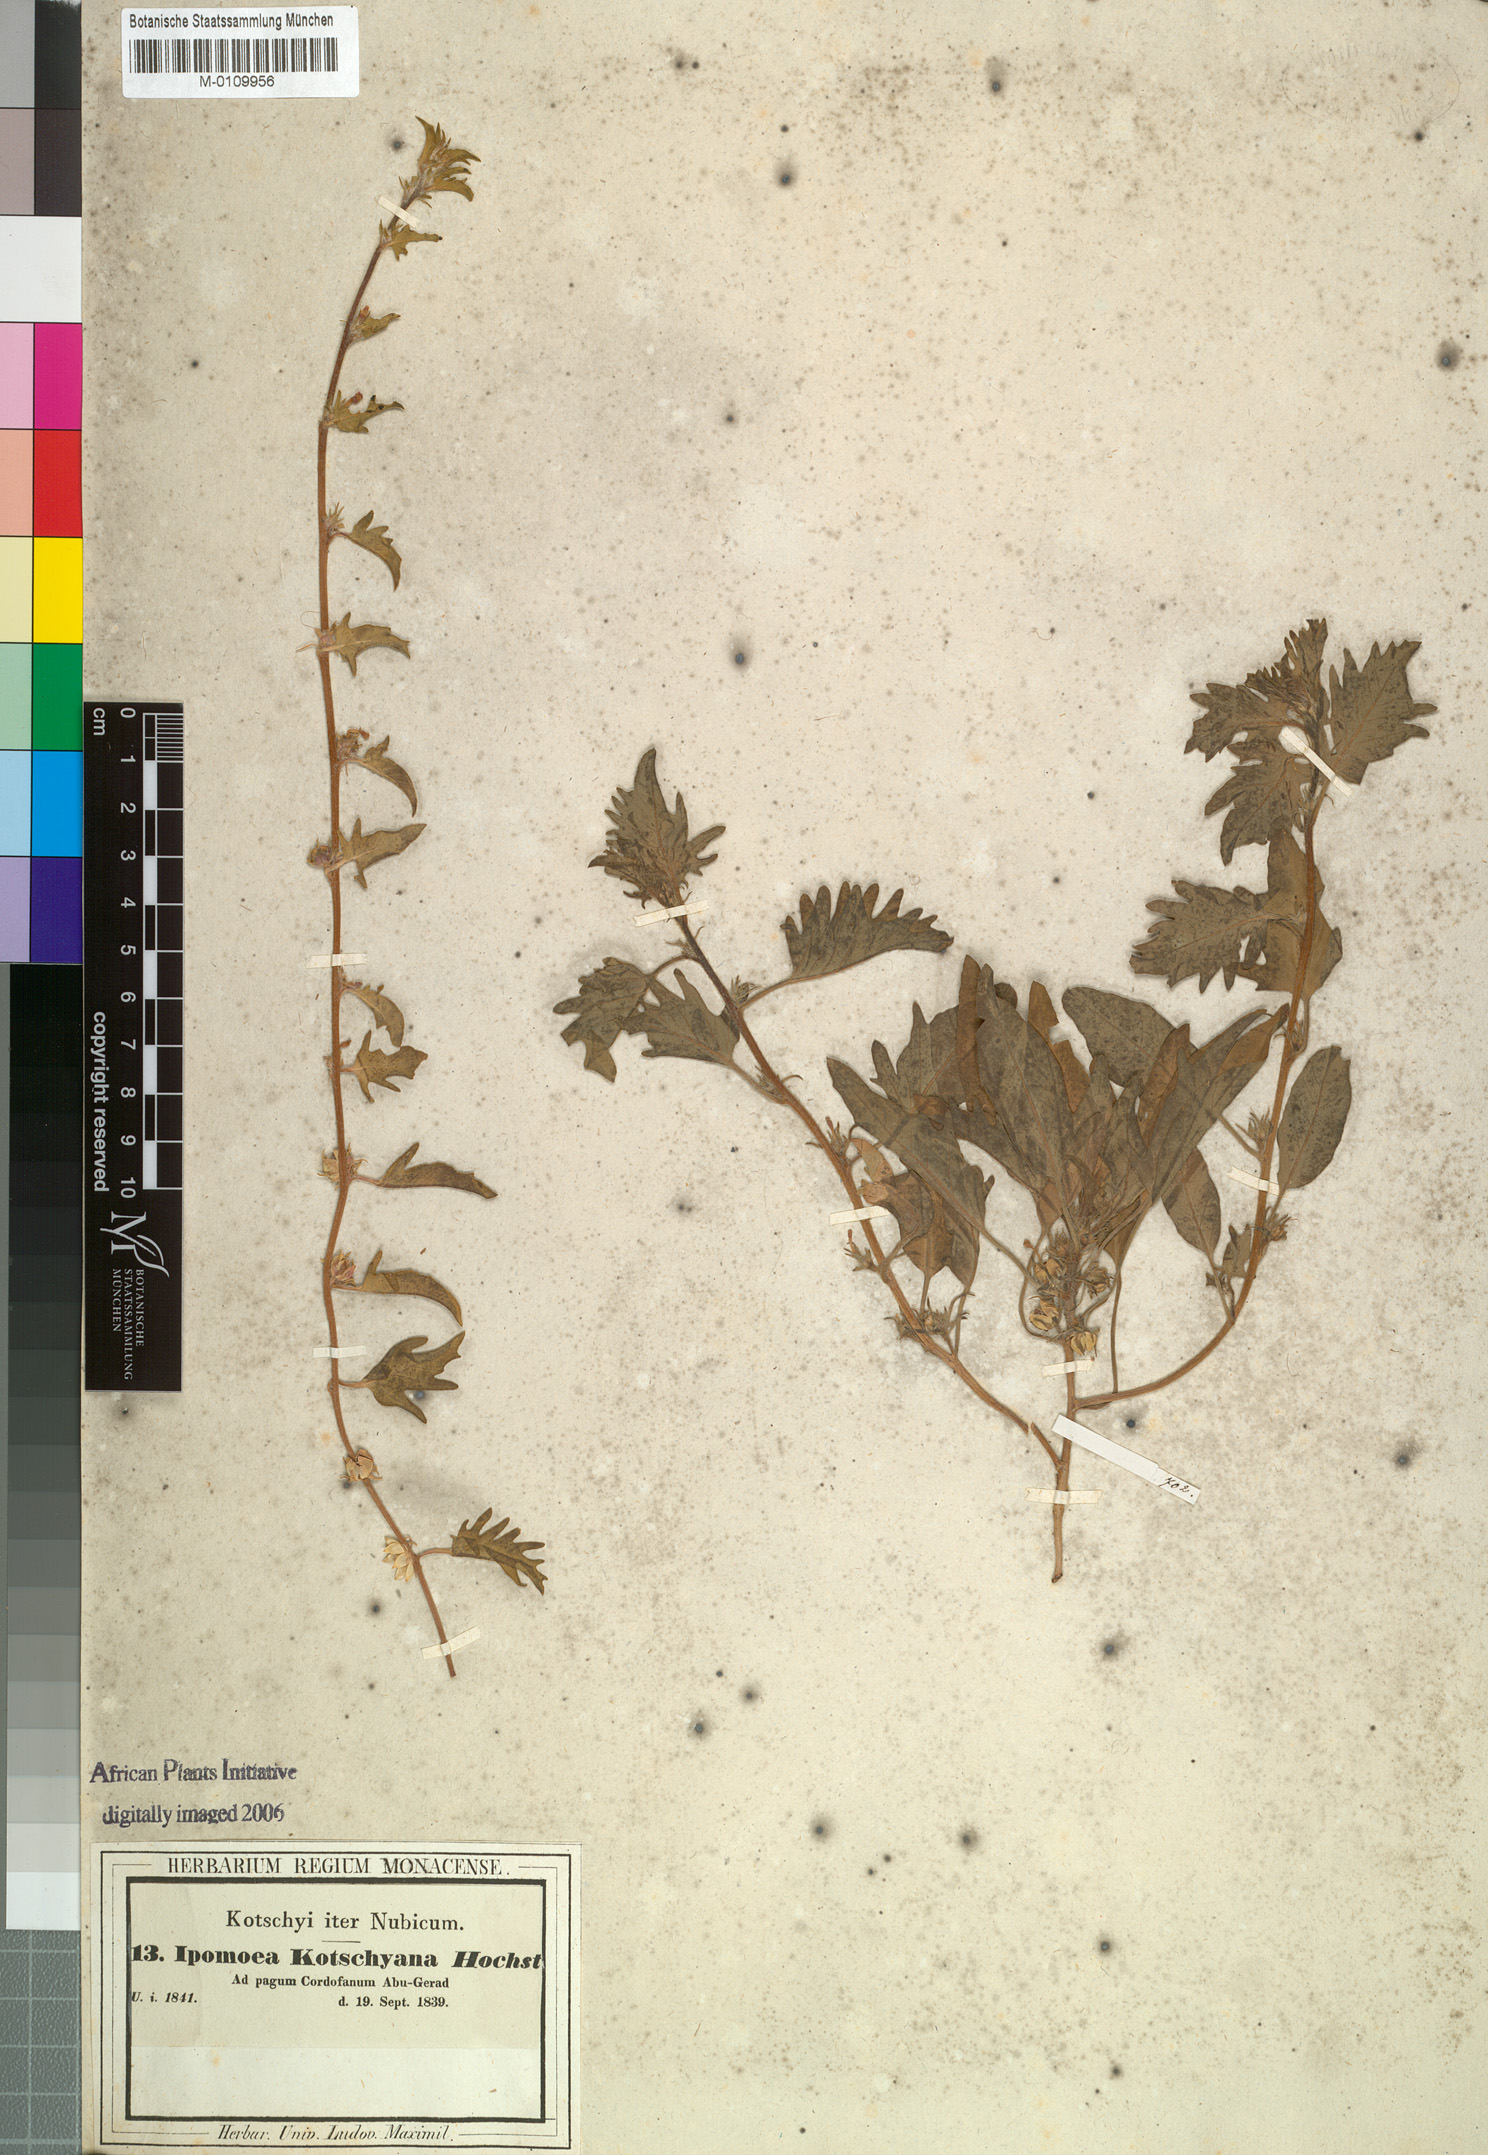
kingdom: Plantae
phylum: Tracheophyta
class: Magnoliopsida
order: Solanales
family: Convolvulaceae
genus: Ipomoea
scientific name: Ipomoea kotschyana
